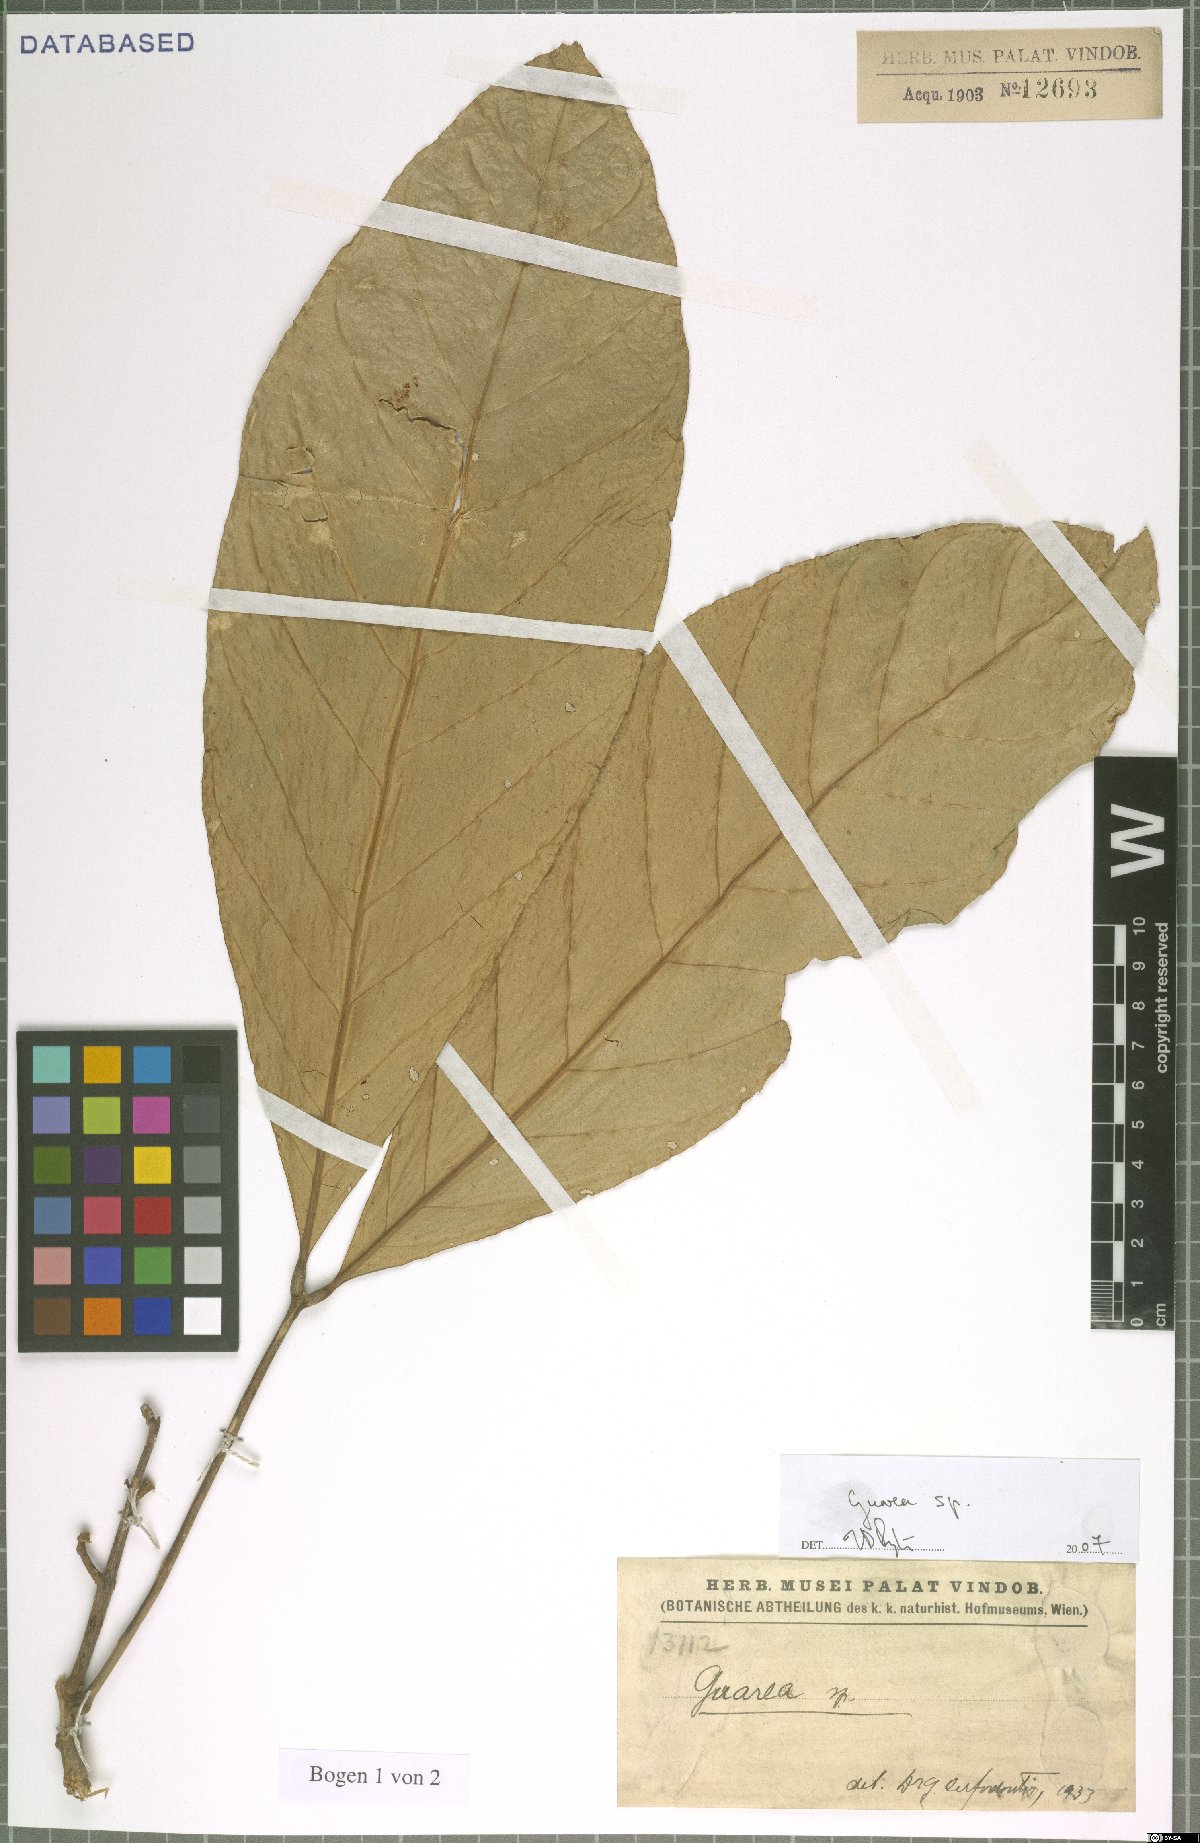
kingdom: Plantae
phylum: Tracheophyta
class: Magnoliopsida
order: Sapindales
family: Meliaceae
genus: Guarea
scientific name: Guarea
